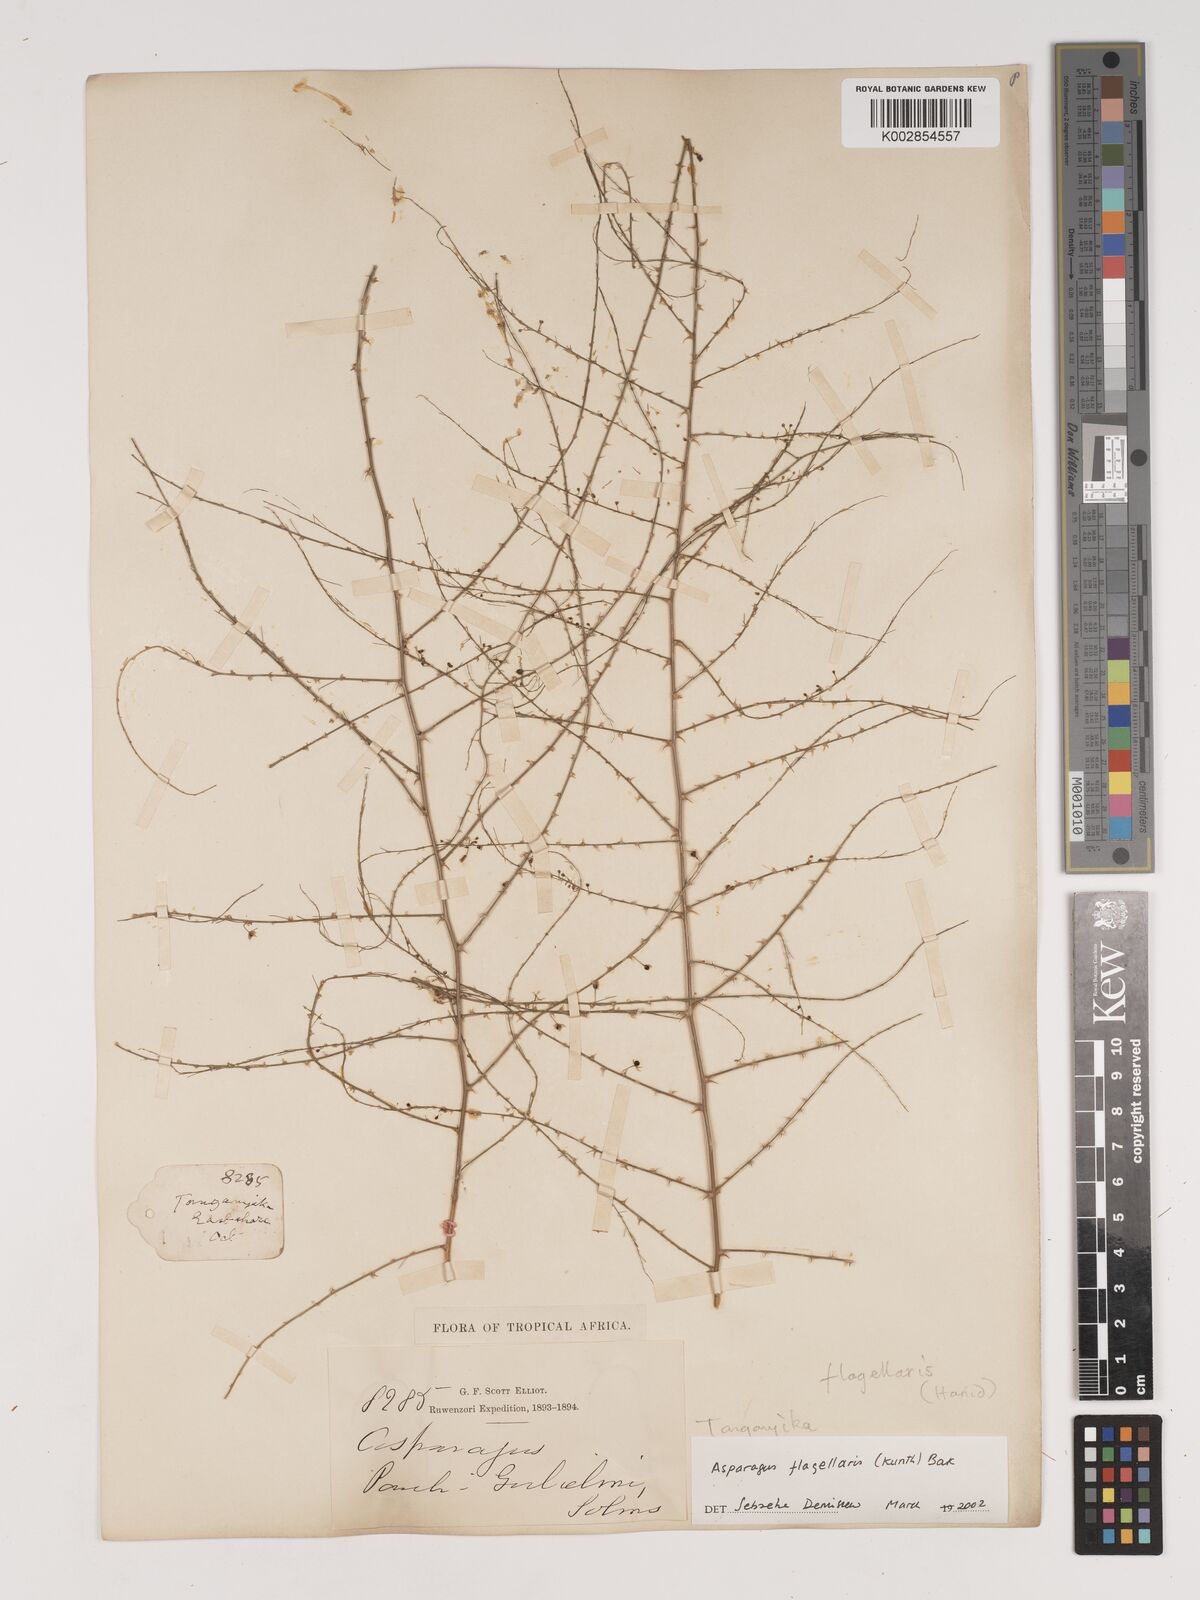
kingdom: Plantae
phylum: Tracheophyta
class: Liliopsida
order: Asparagales
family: Asparagaceae
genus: Asparagus
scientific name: Asparagus flagellaris
